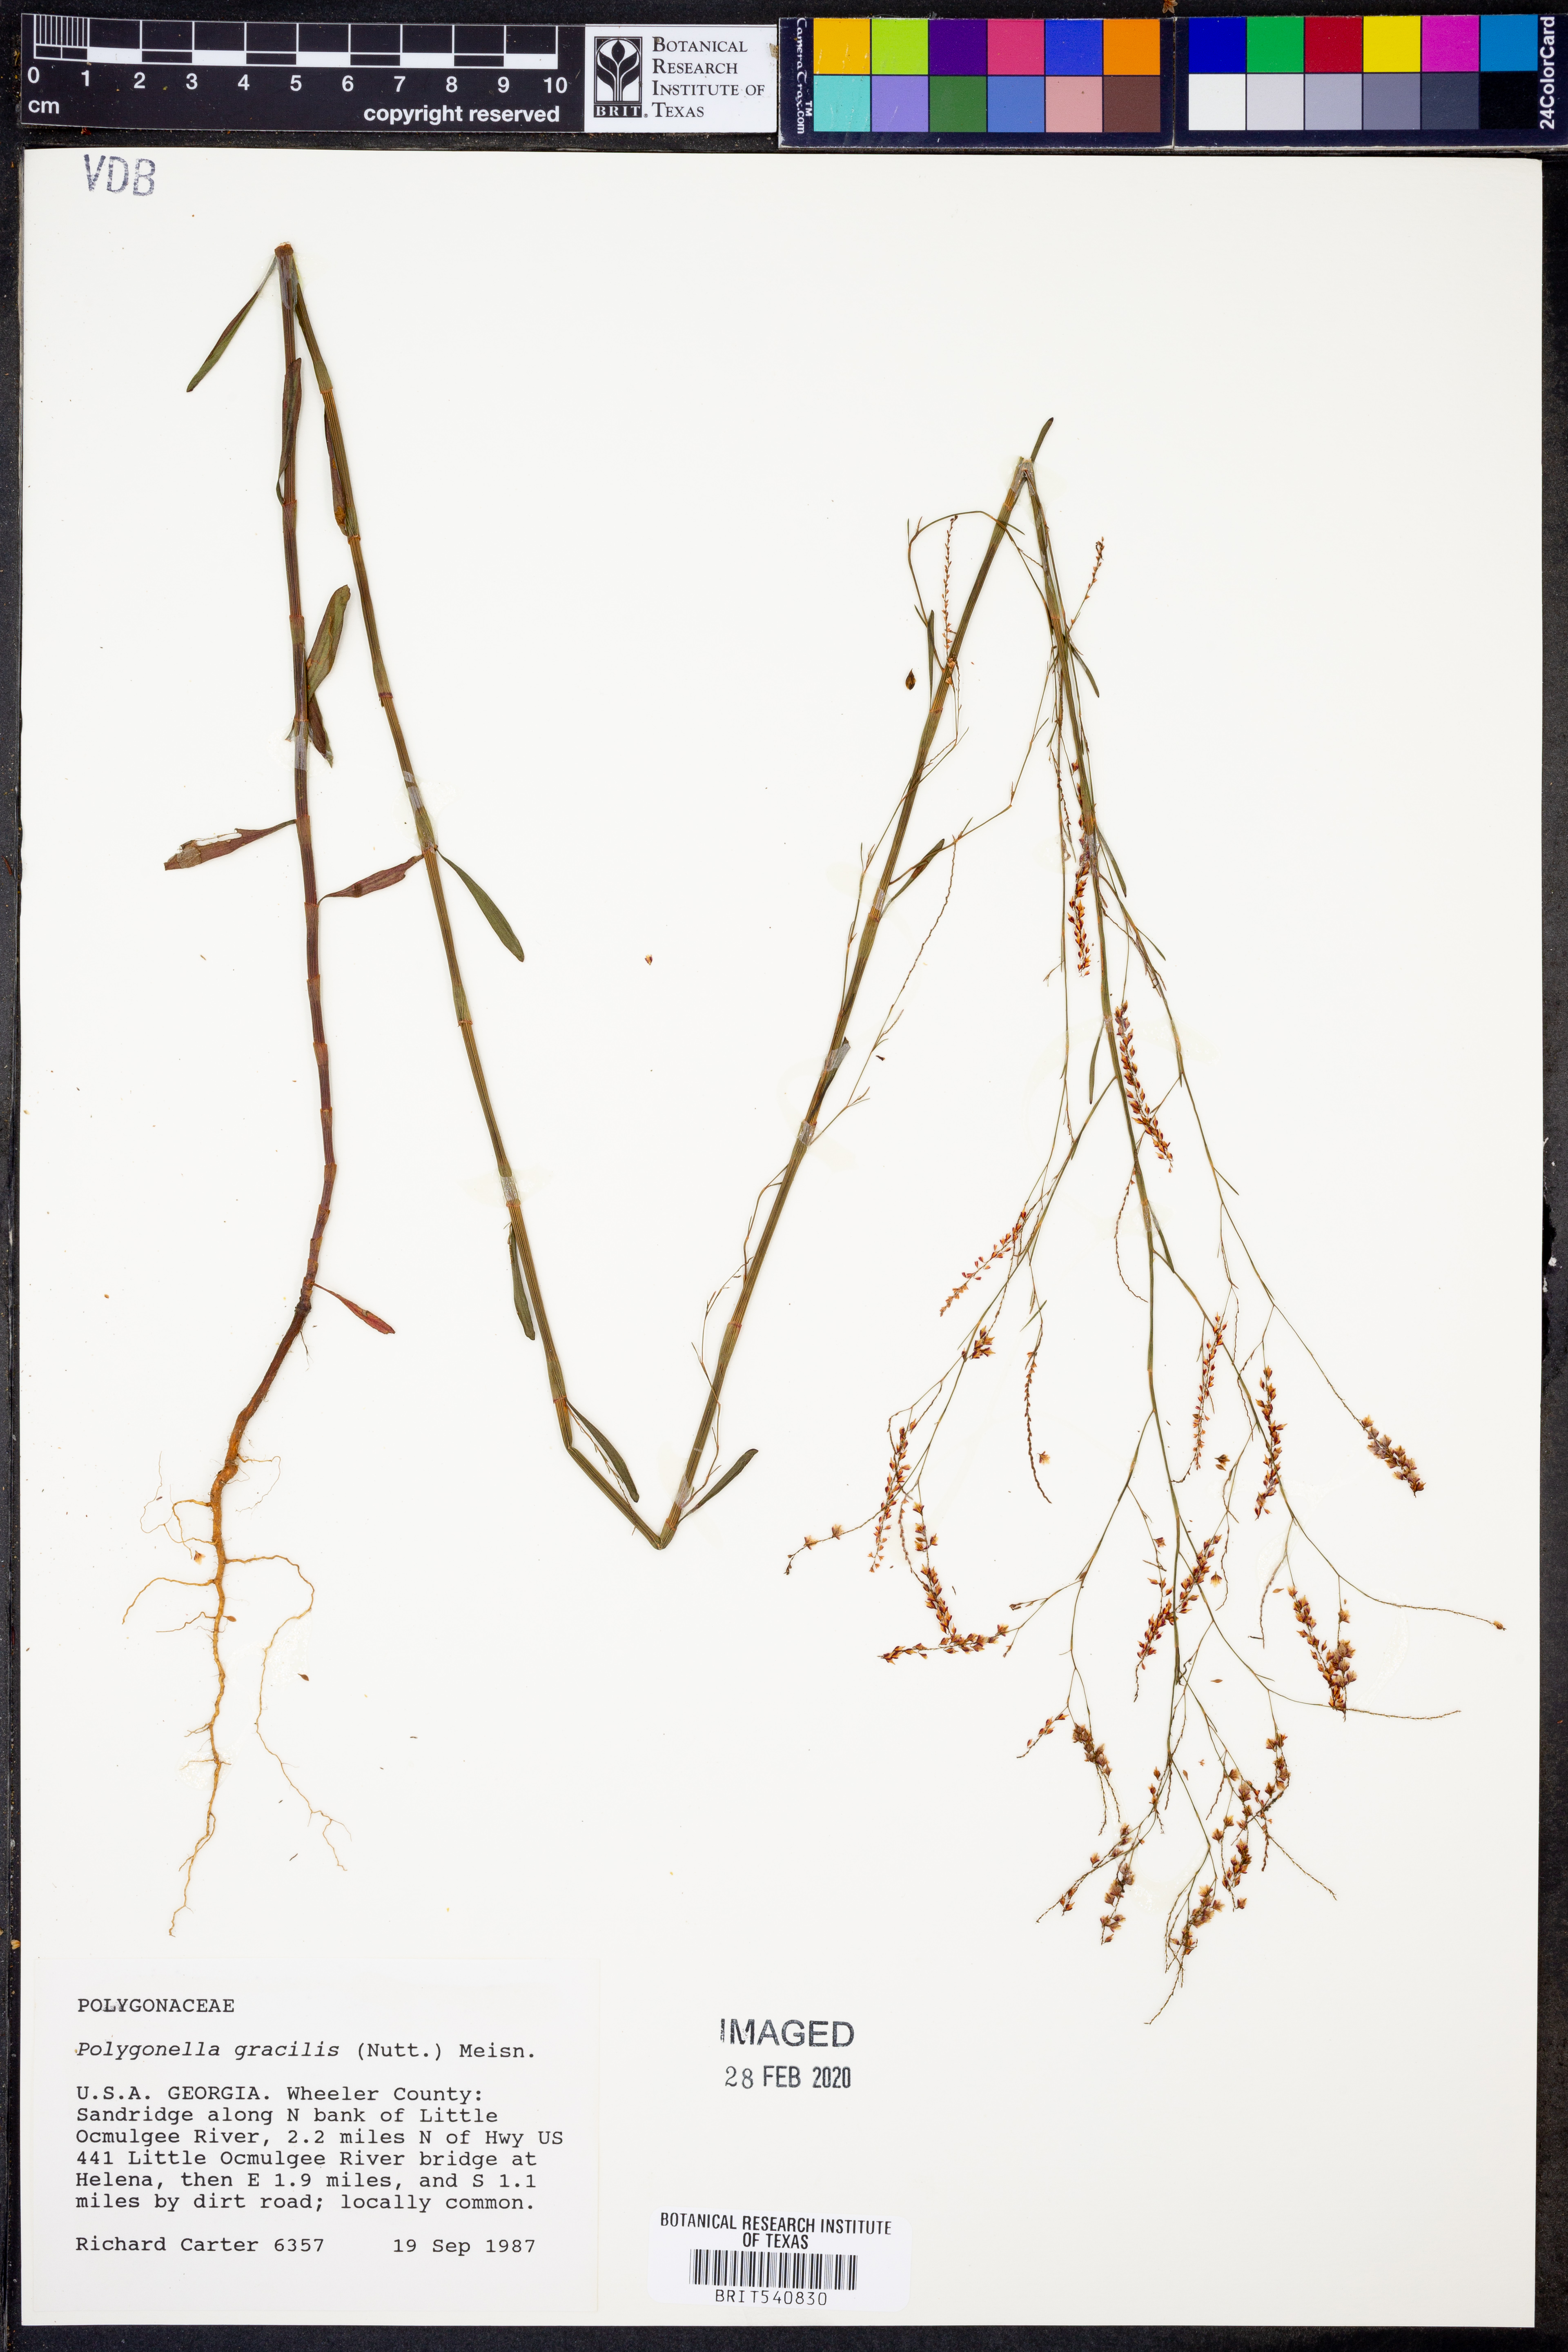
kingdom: Plantae
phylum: Tracheophyta
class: Magnoliopsida
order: Caryophyllales
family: Polygonaceae
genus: Polygonella
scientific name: Polygonella gracilis
